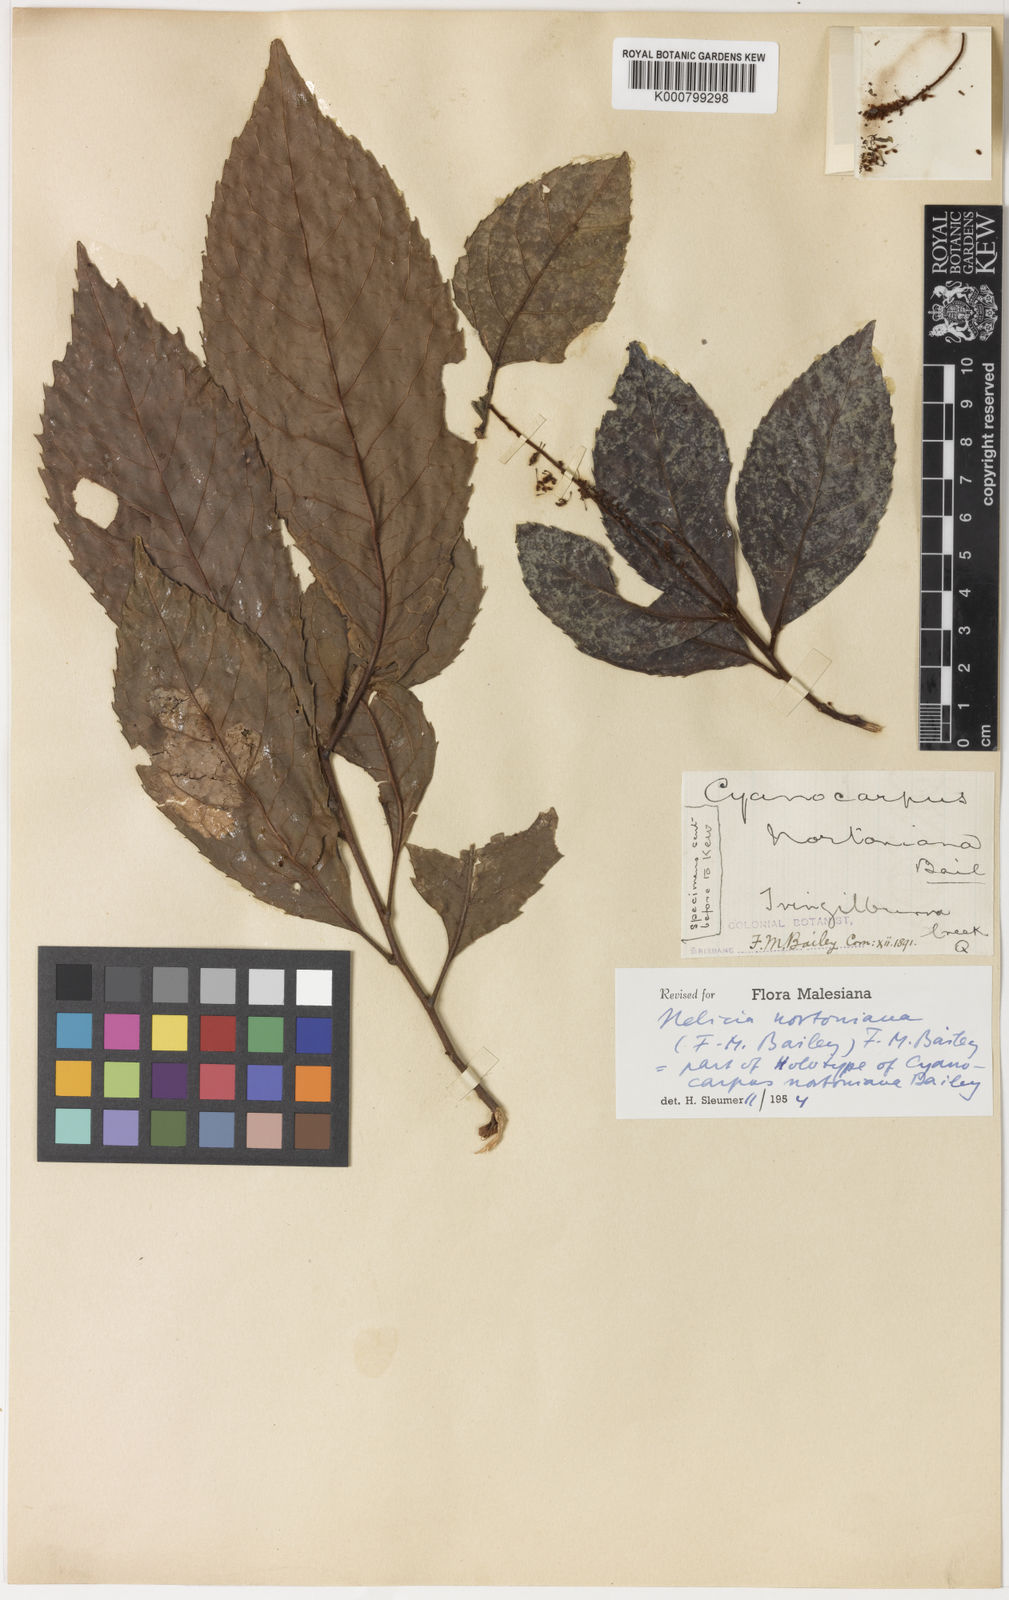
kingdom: Plantae
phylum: Tracheophyta
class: Magnoliopsida
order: Proteales
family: Proteaceae
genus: Helicia
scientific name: Helicia nortoniana
